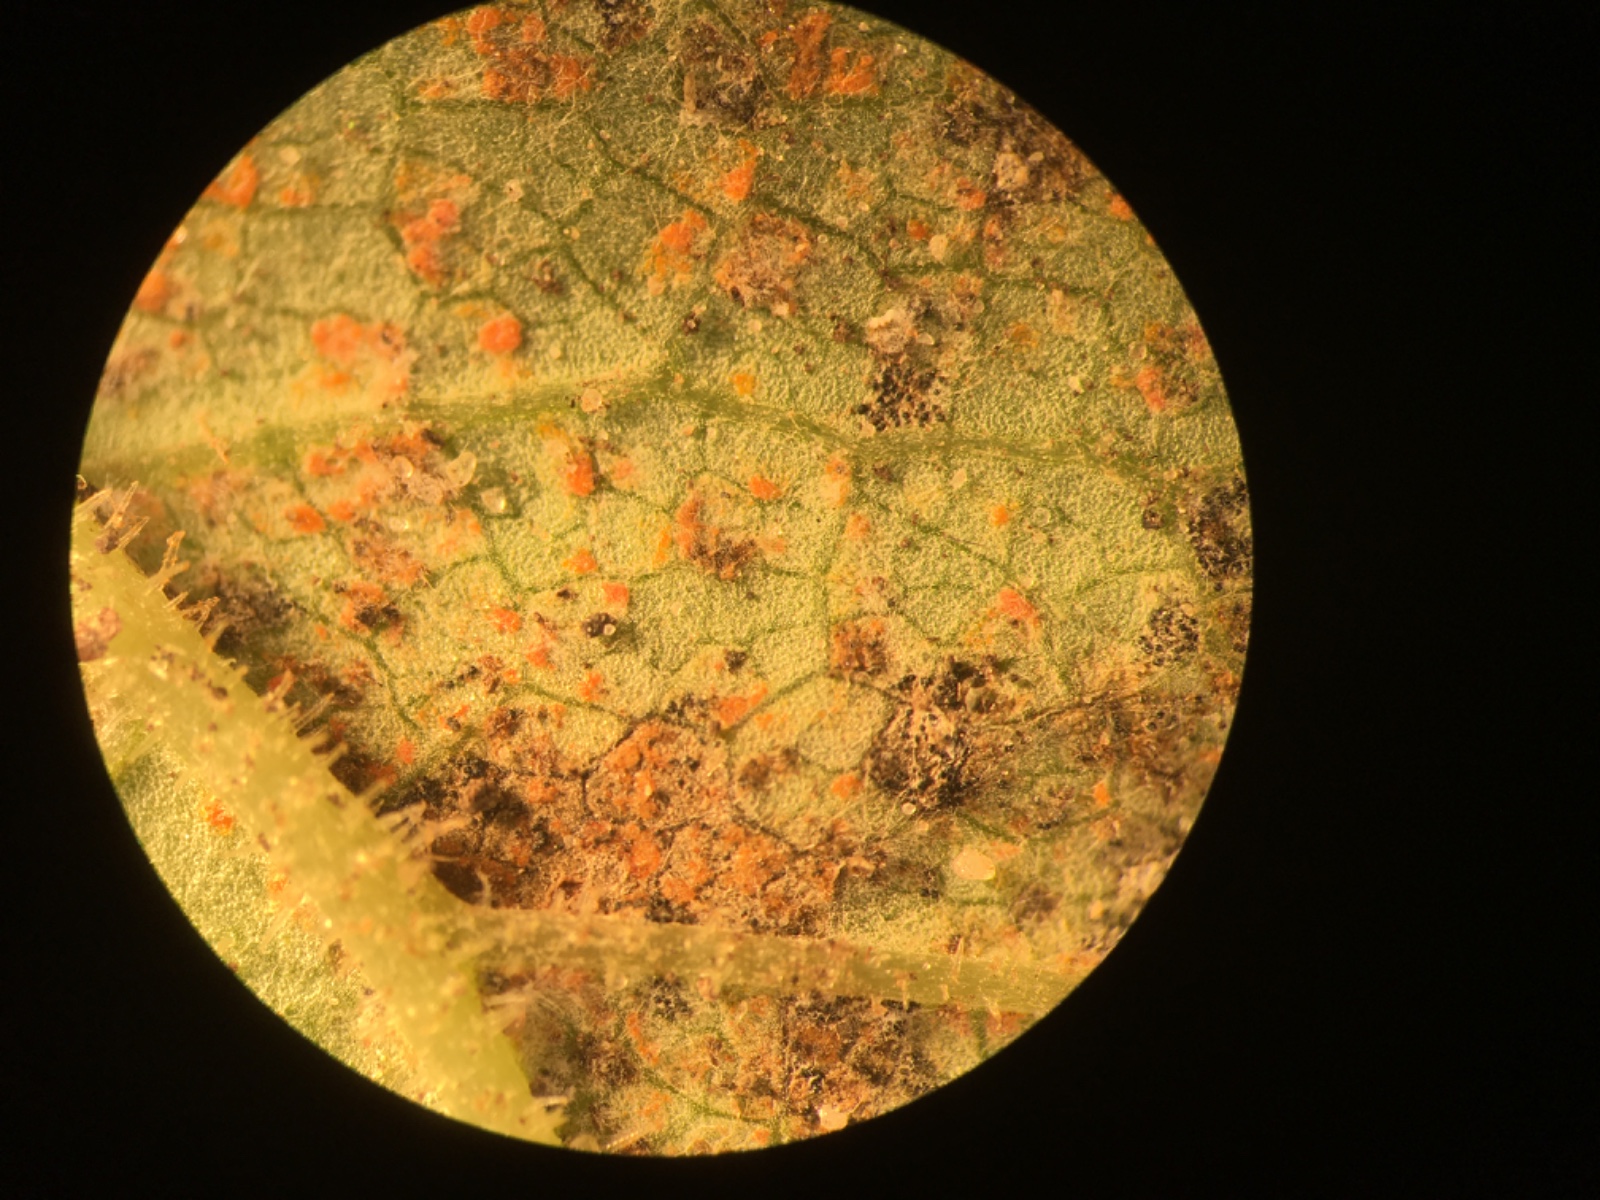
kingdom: Fungi
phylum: Basidiomycota
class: Pucciniomycetes
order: Pucciniales
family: Coleosporiaceae
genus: Coleosporium
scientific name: Coleosporium tussilaginis
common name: almindelig fyrrenålerust
